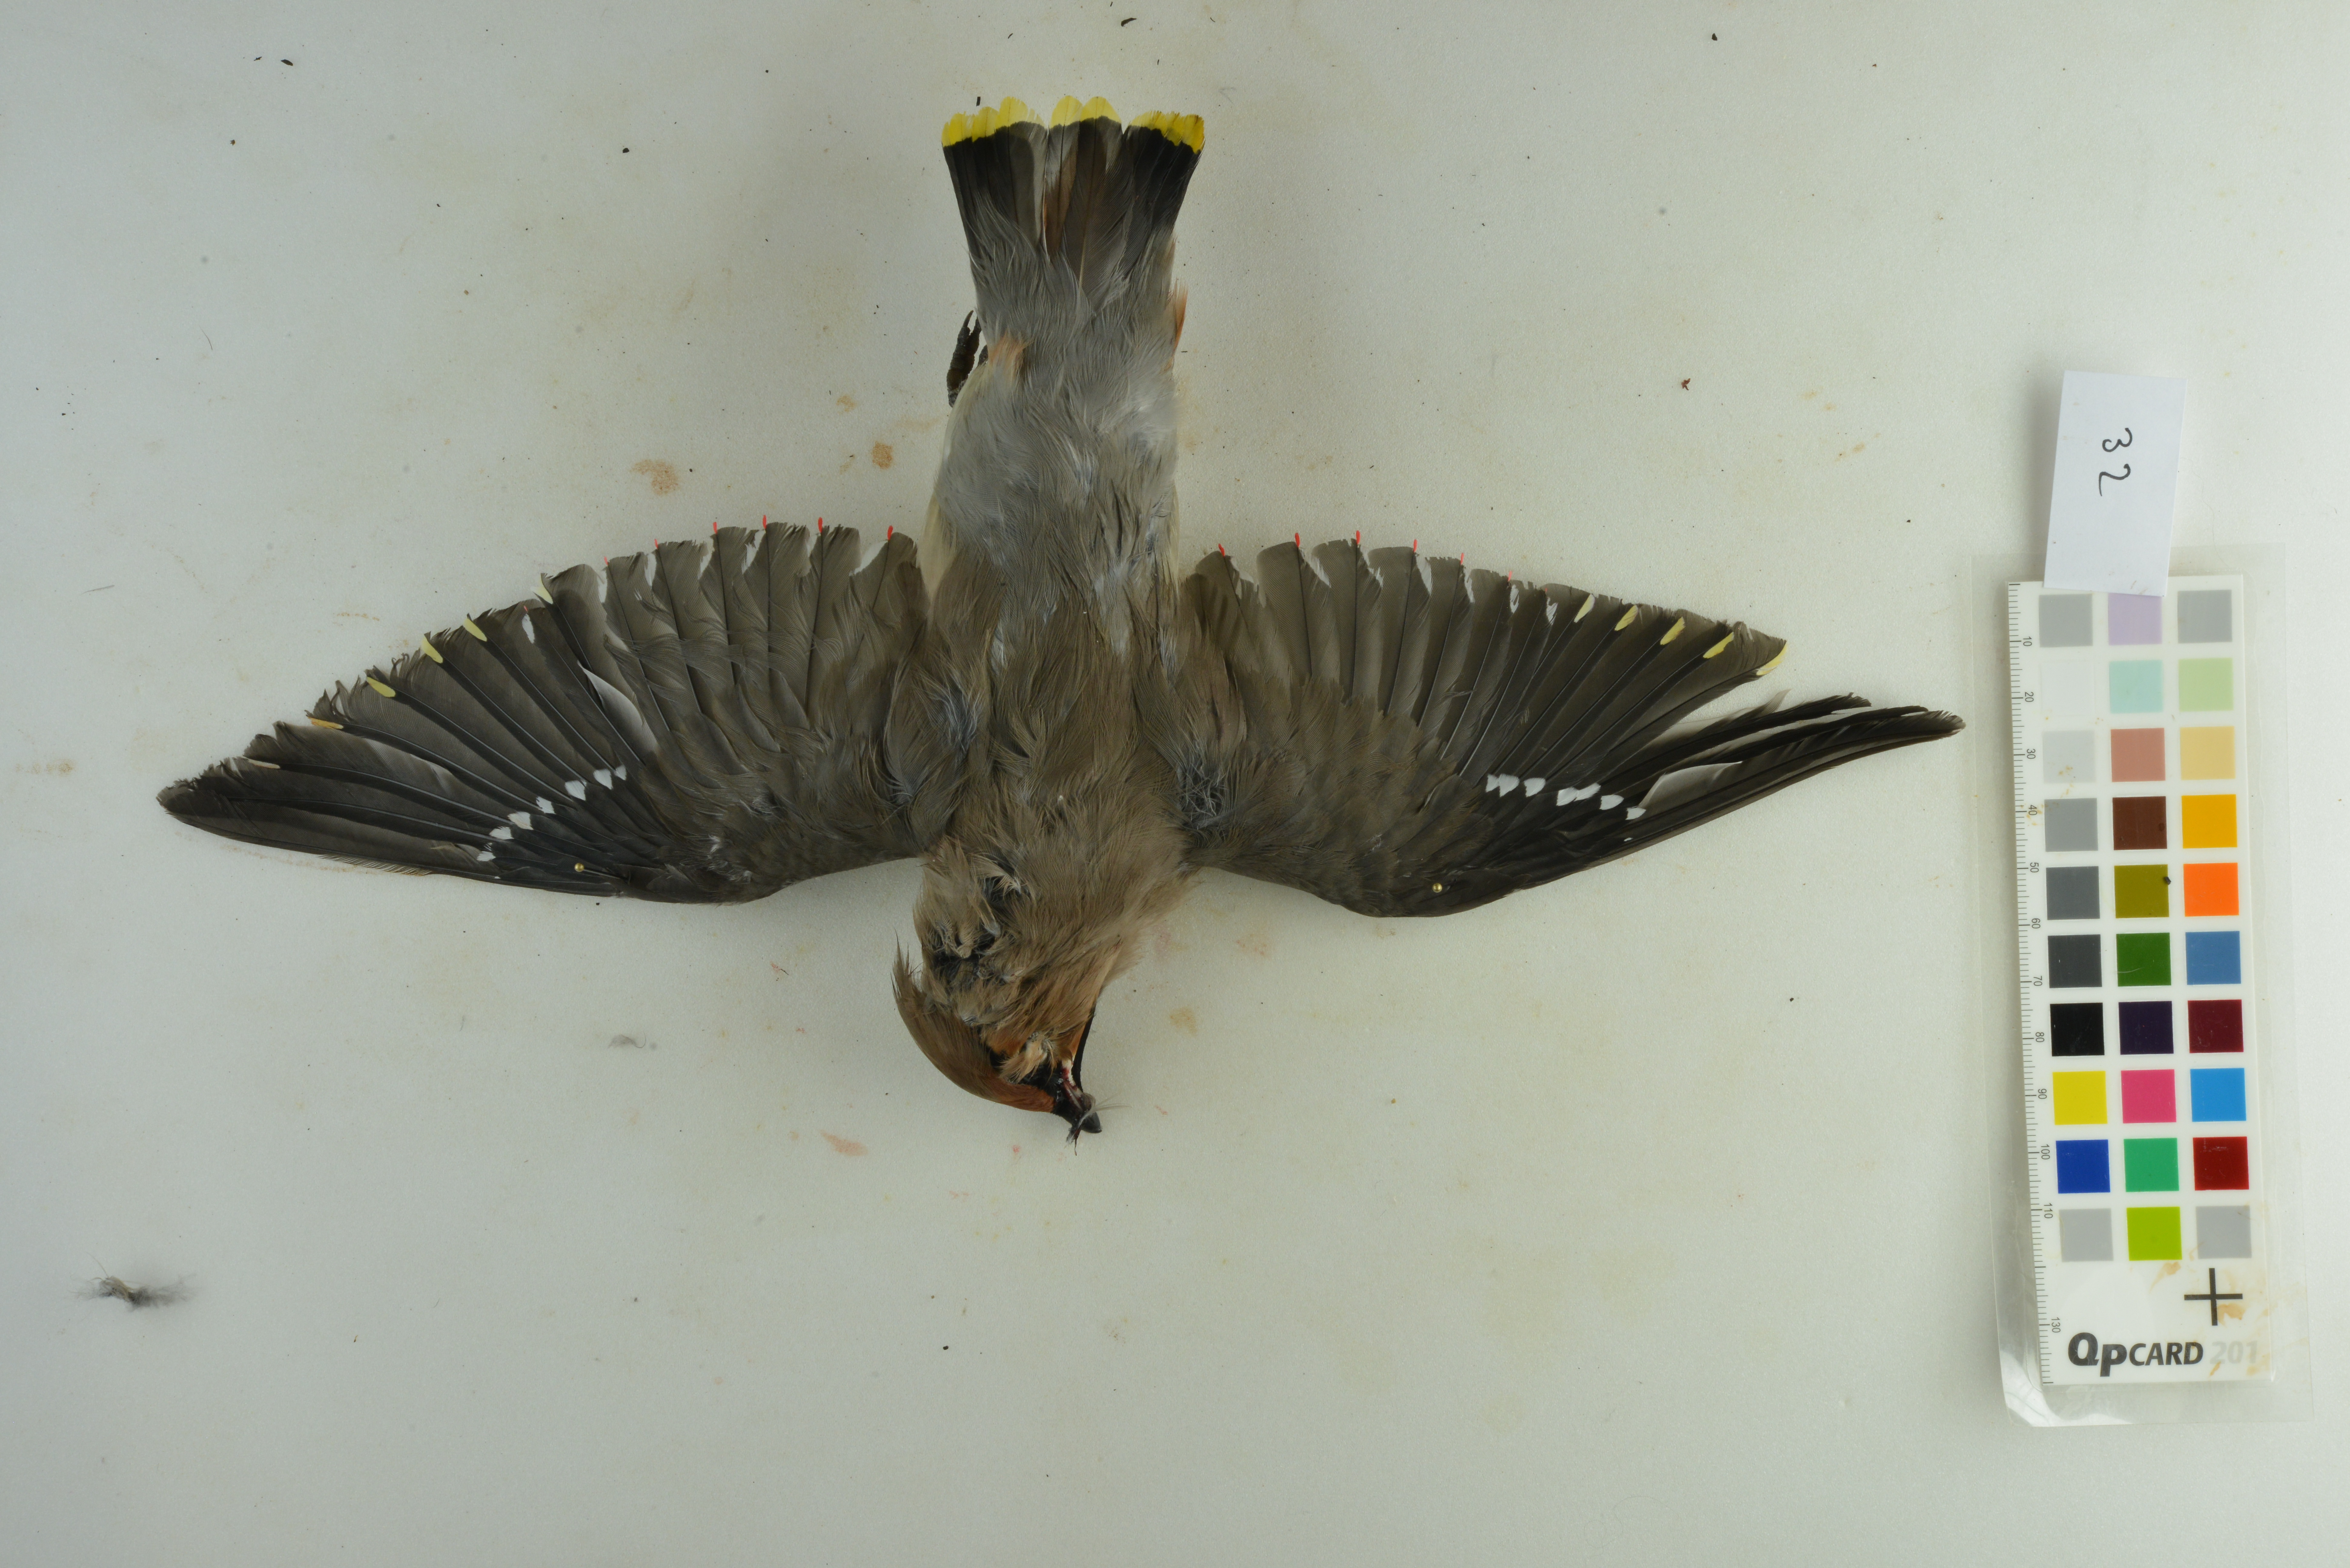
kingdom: Animalia
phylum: Chordata
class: Aves
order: Passeriformes
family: Bombycillidae
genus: Bombycilla
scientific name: Bombycilla garrulus
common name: Bohemian waxwing
